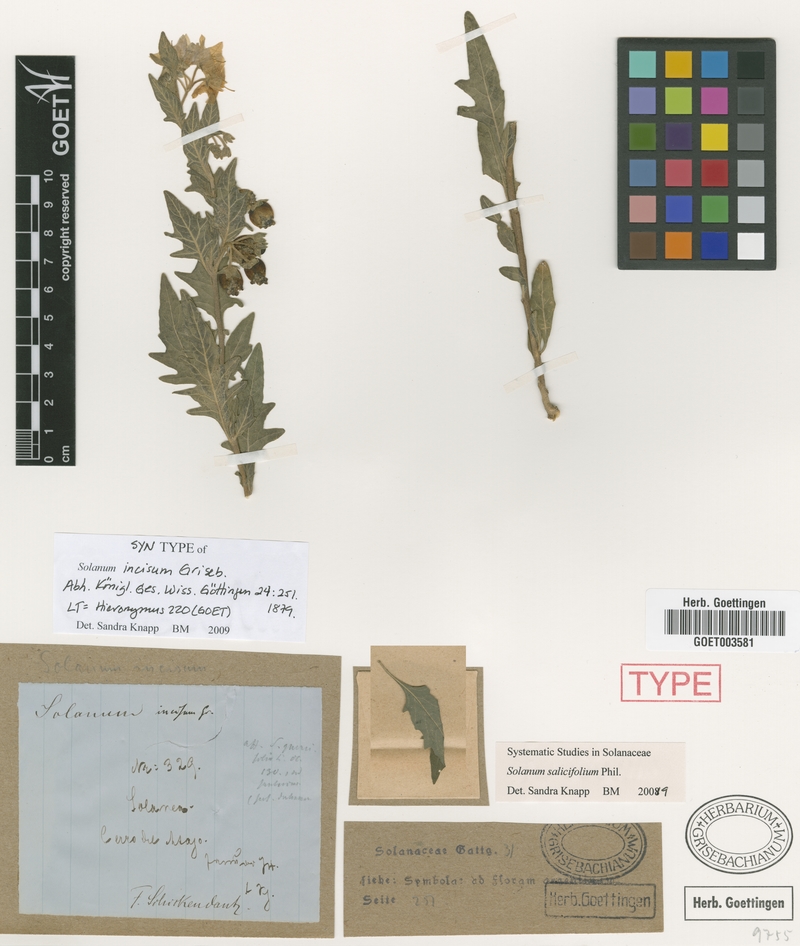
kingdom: Plantae
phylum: Tracheophyta
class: Magnoliopsida
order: Solanales
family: Solanaceae
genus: Solanum
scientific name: Solanum salicifolium
